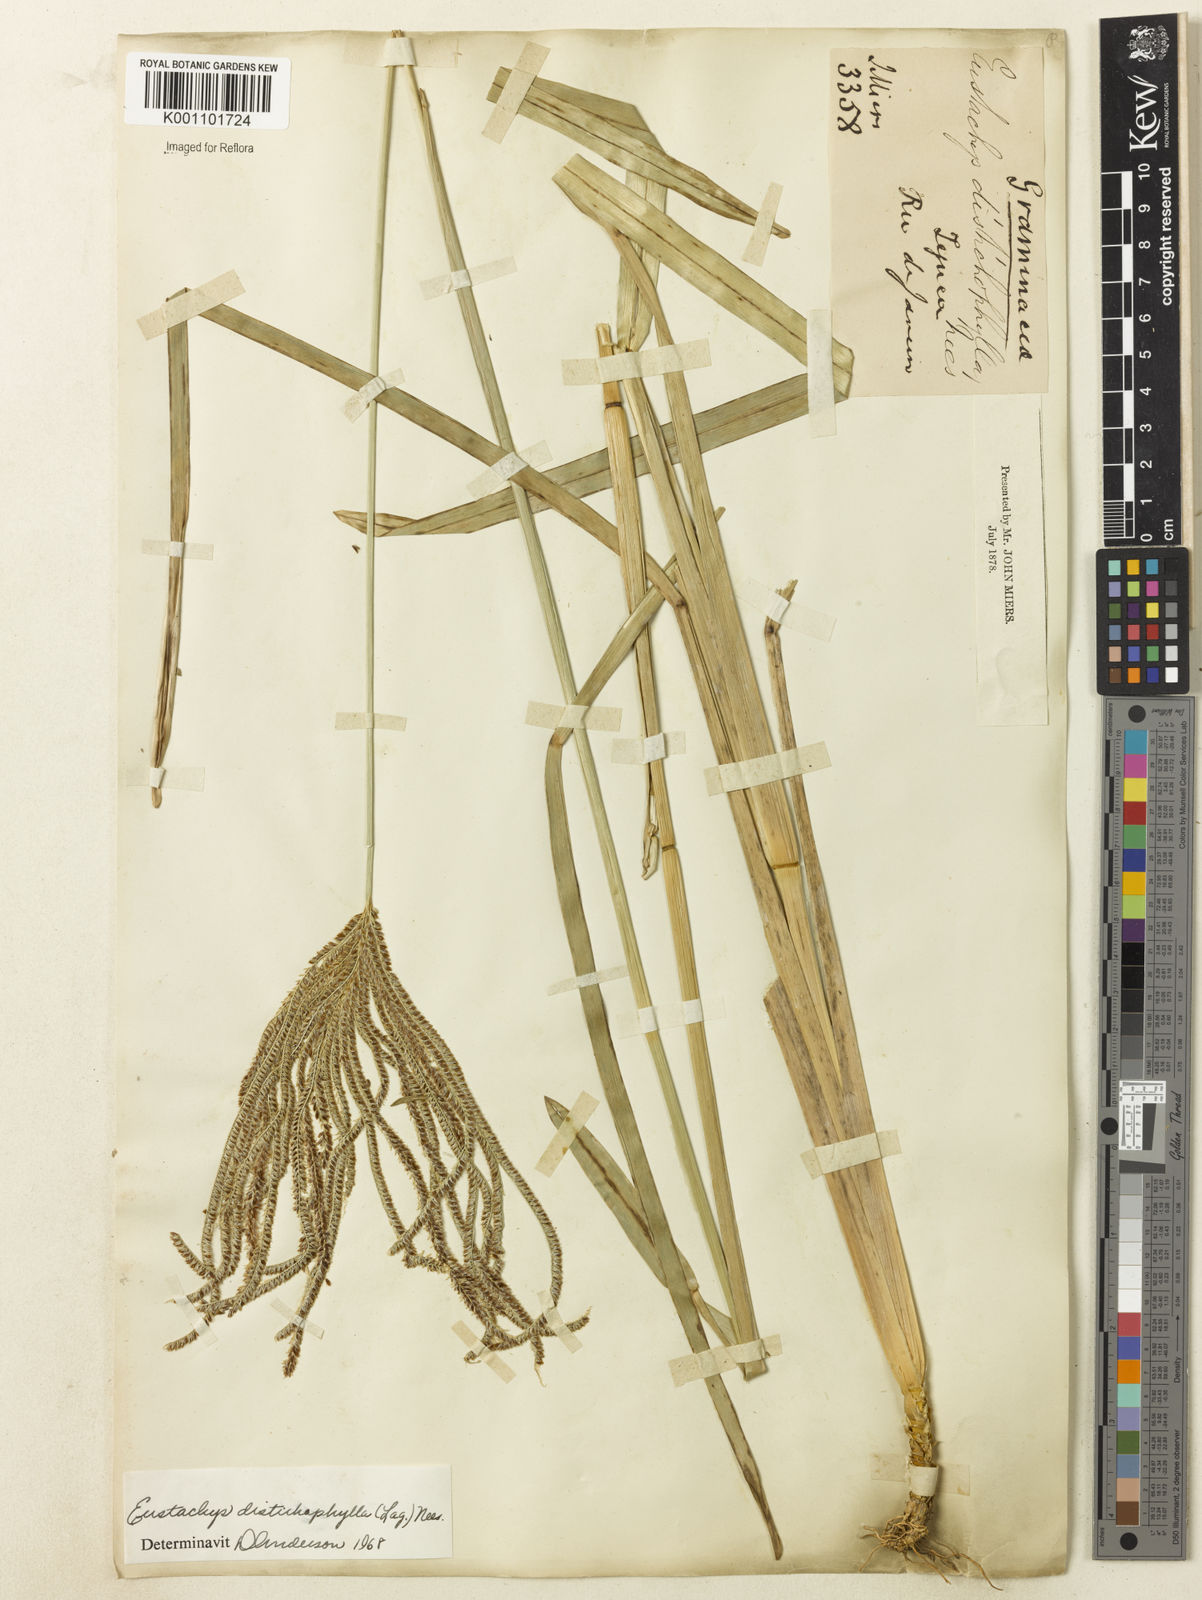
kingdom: Plantae
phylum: Tracheophyta
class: Liliopsida
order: Poales
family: Poaceae
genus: Eustachys
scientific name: Eustachys distichophylla
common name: Weeping fingergrass
